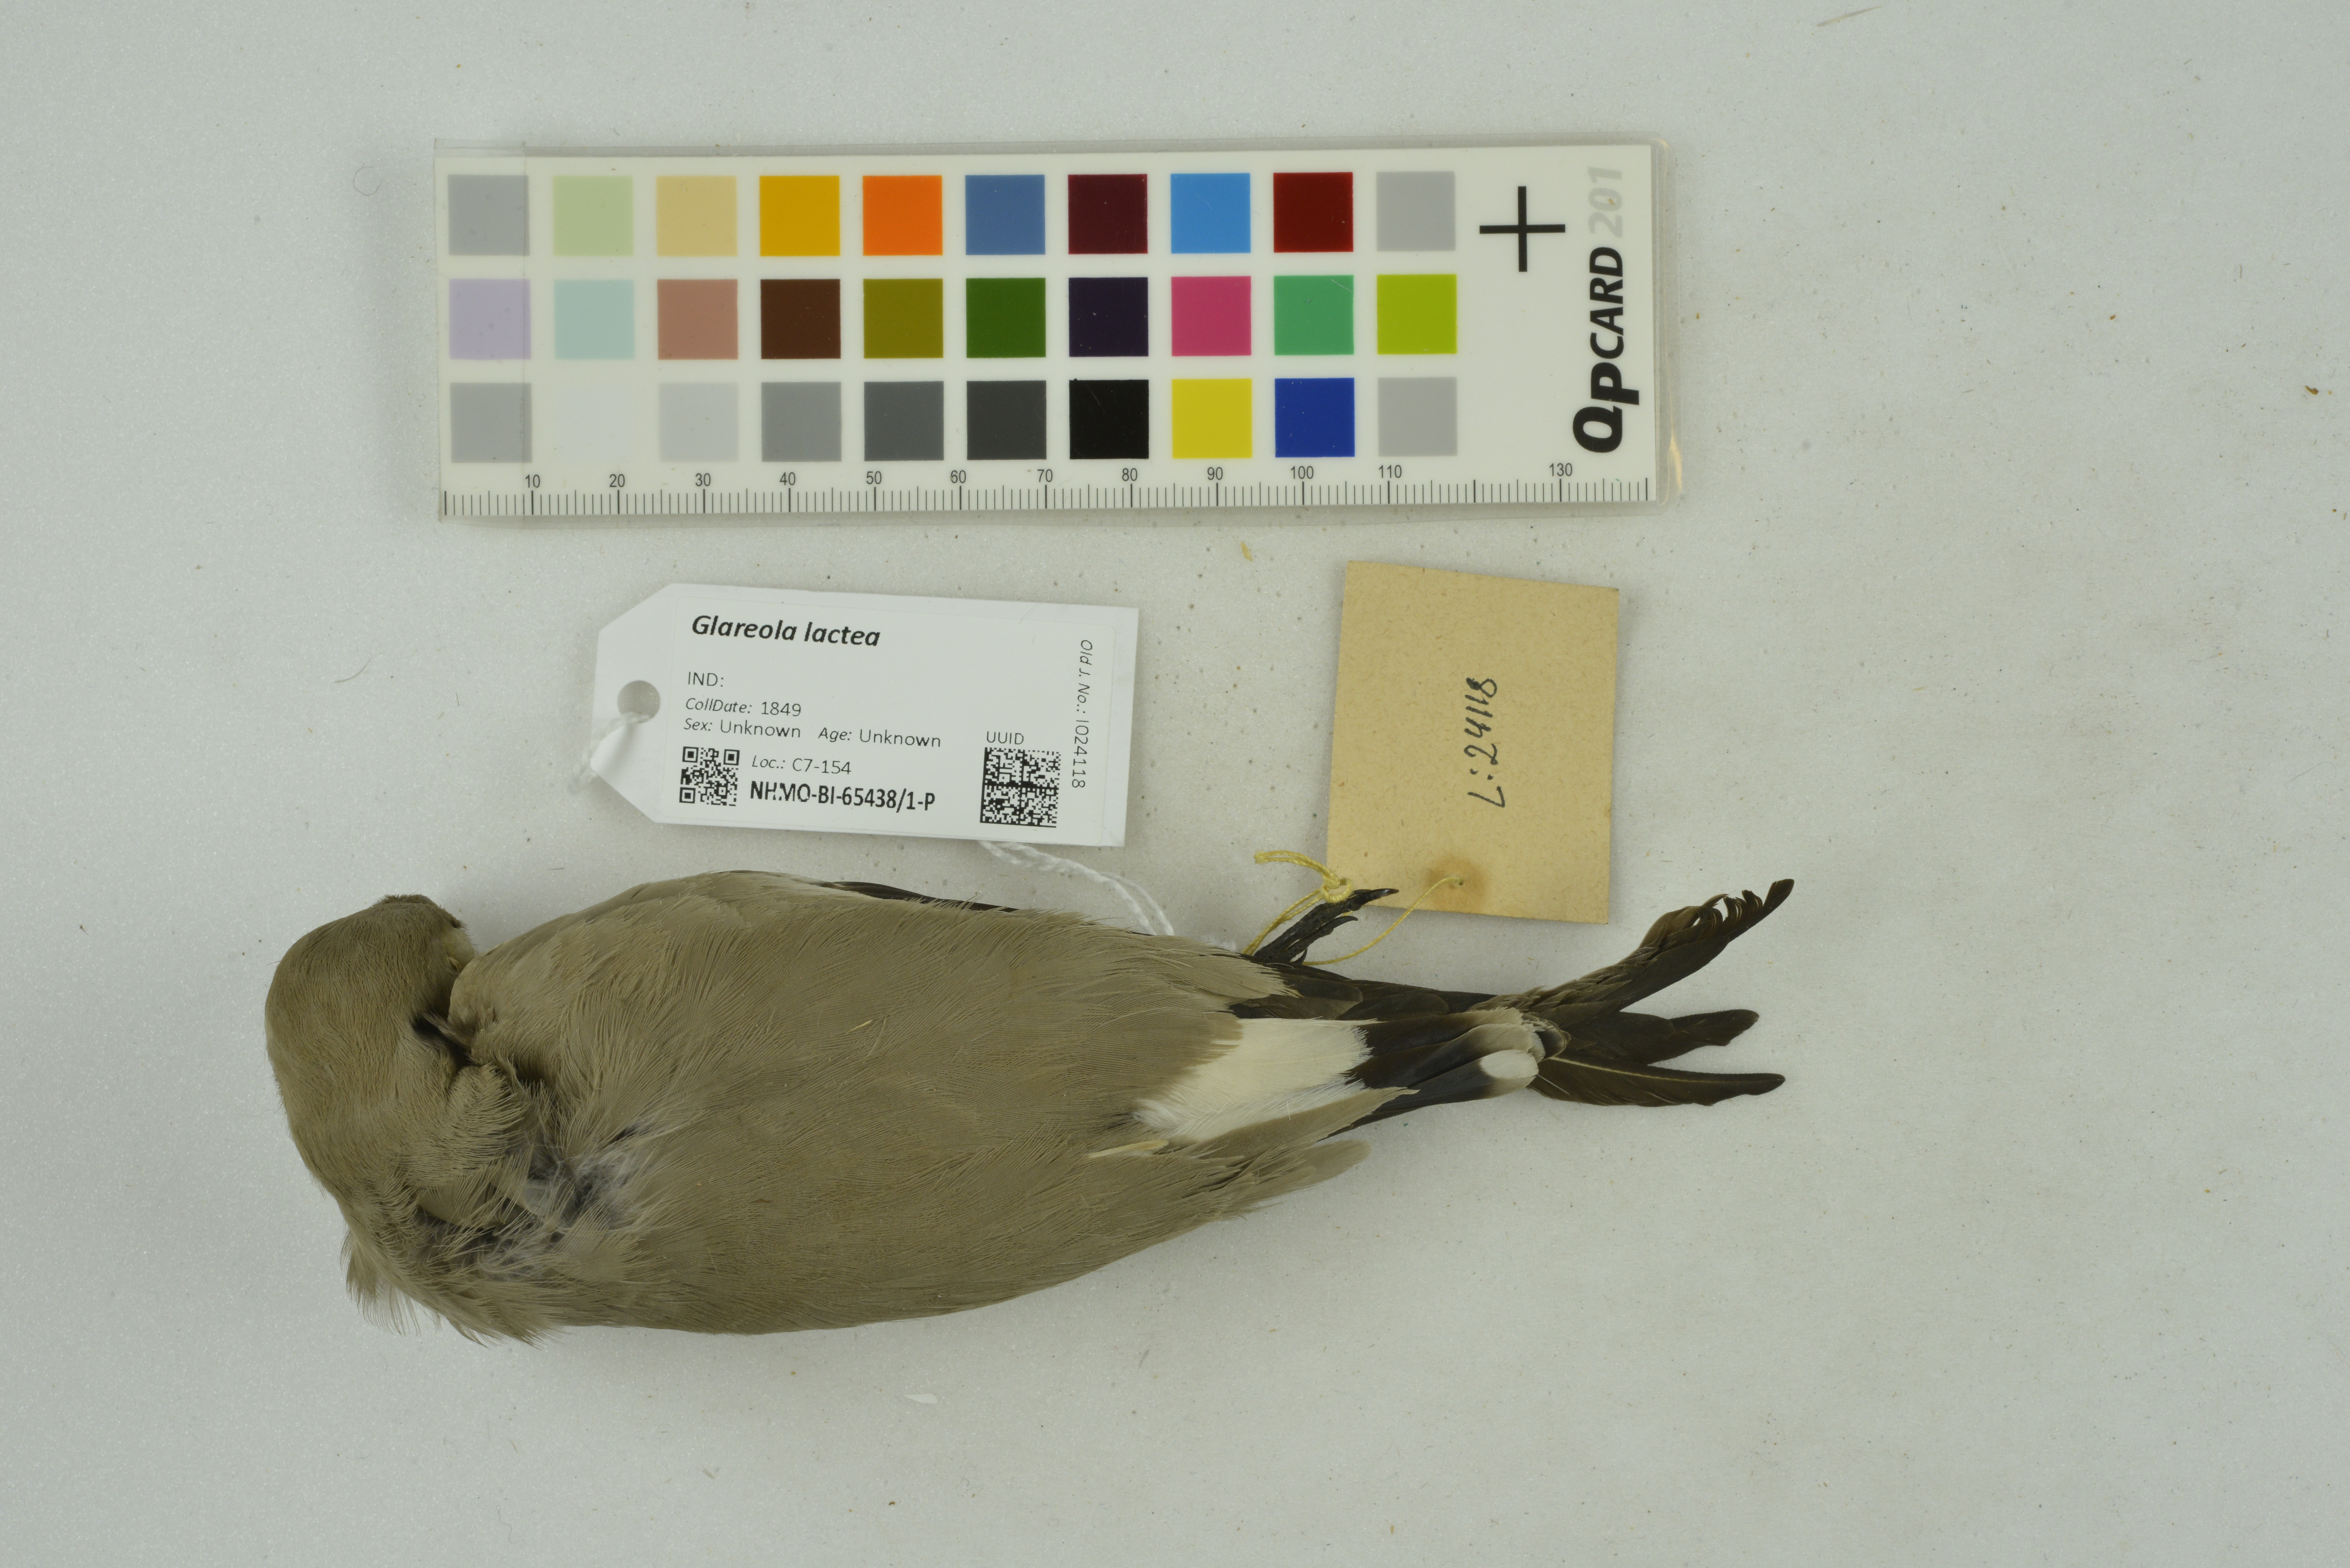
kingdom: Animalia
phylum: Chordata
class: Aves
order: Charadriiformes
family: Glareolidae
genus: Glareola
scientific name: Glareola lactea
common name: Small pratincole
